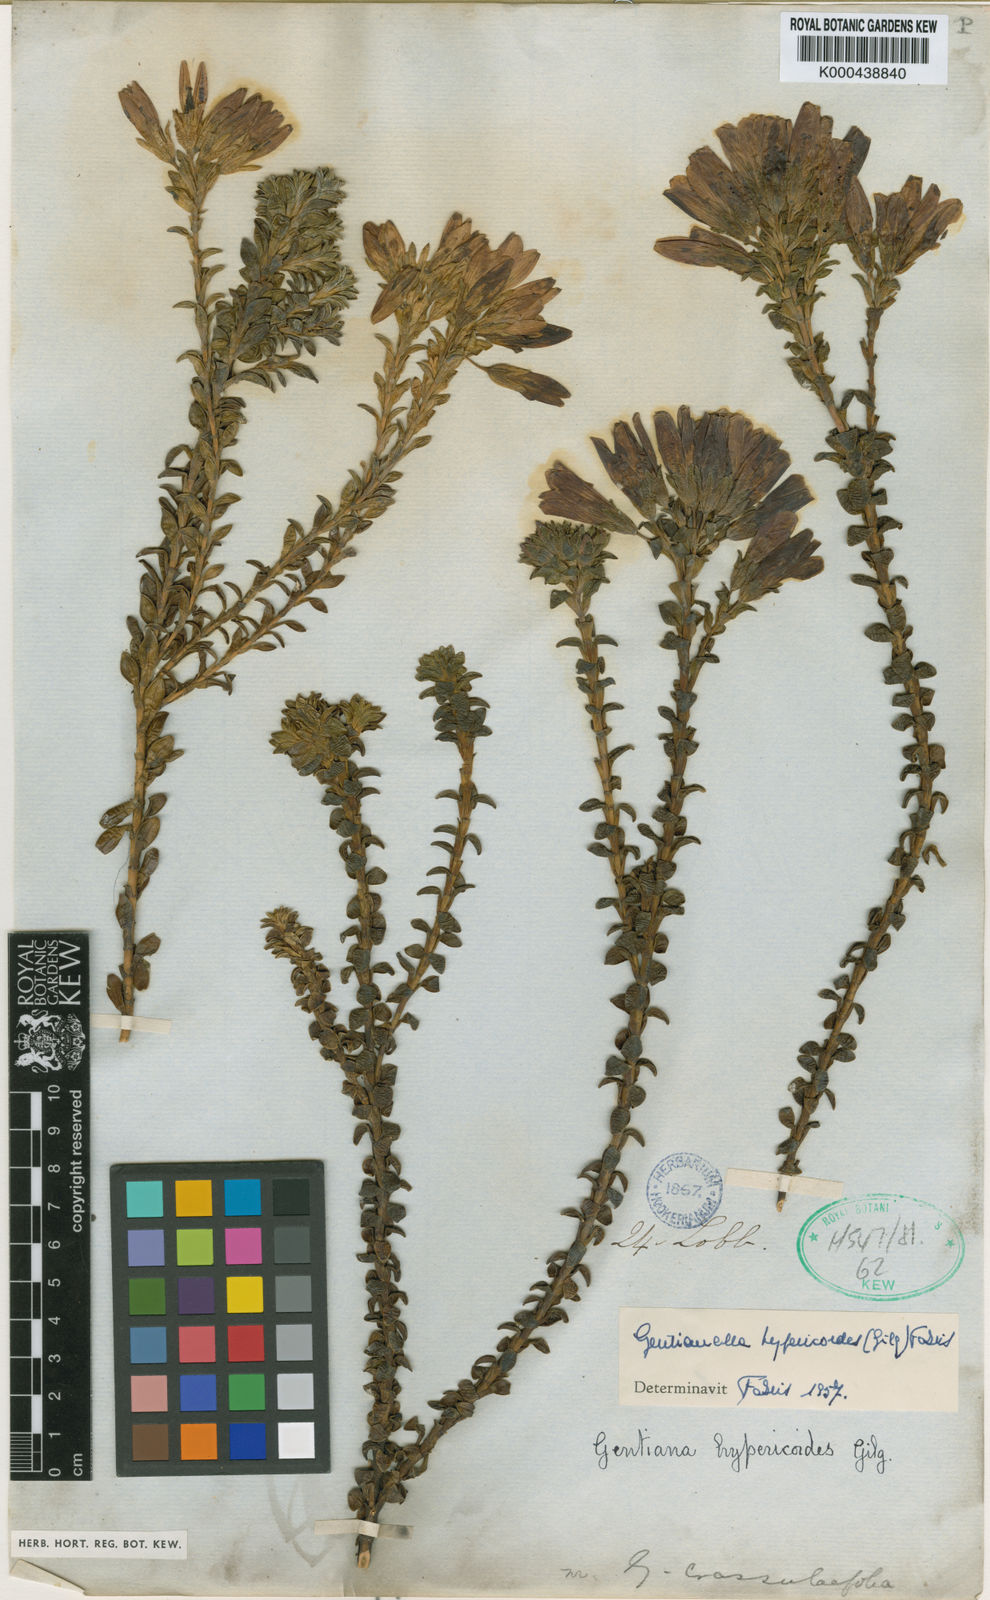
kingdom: Plantae
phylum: Tracheophyta
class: Magnoliopsida
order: Gentianales
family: Gentianaceae
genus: Gentianella
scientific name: Gentianella hypericoides
